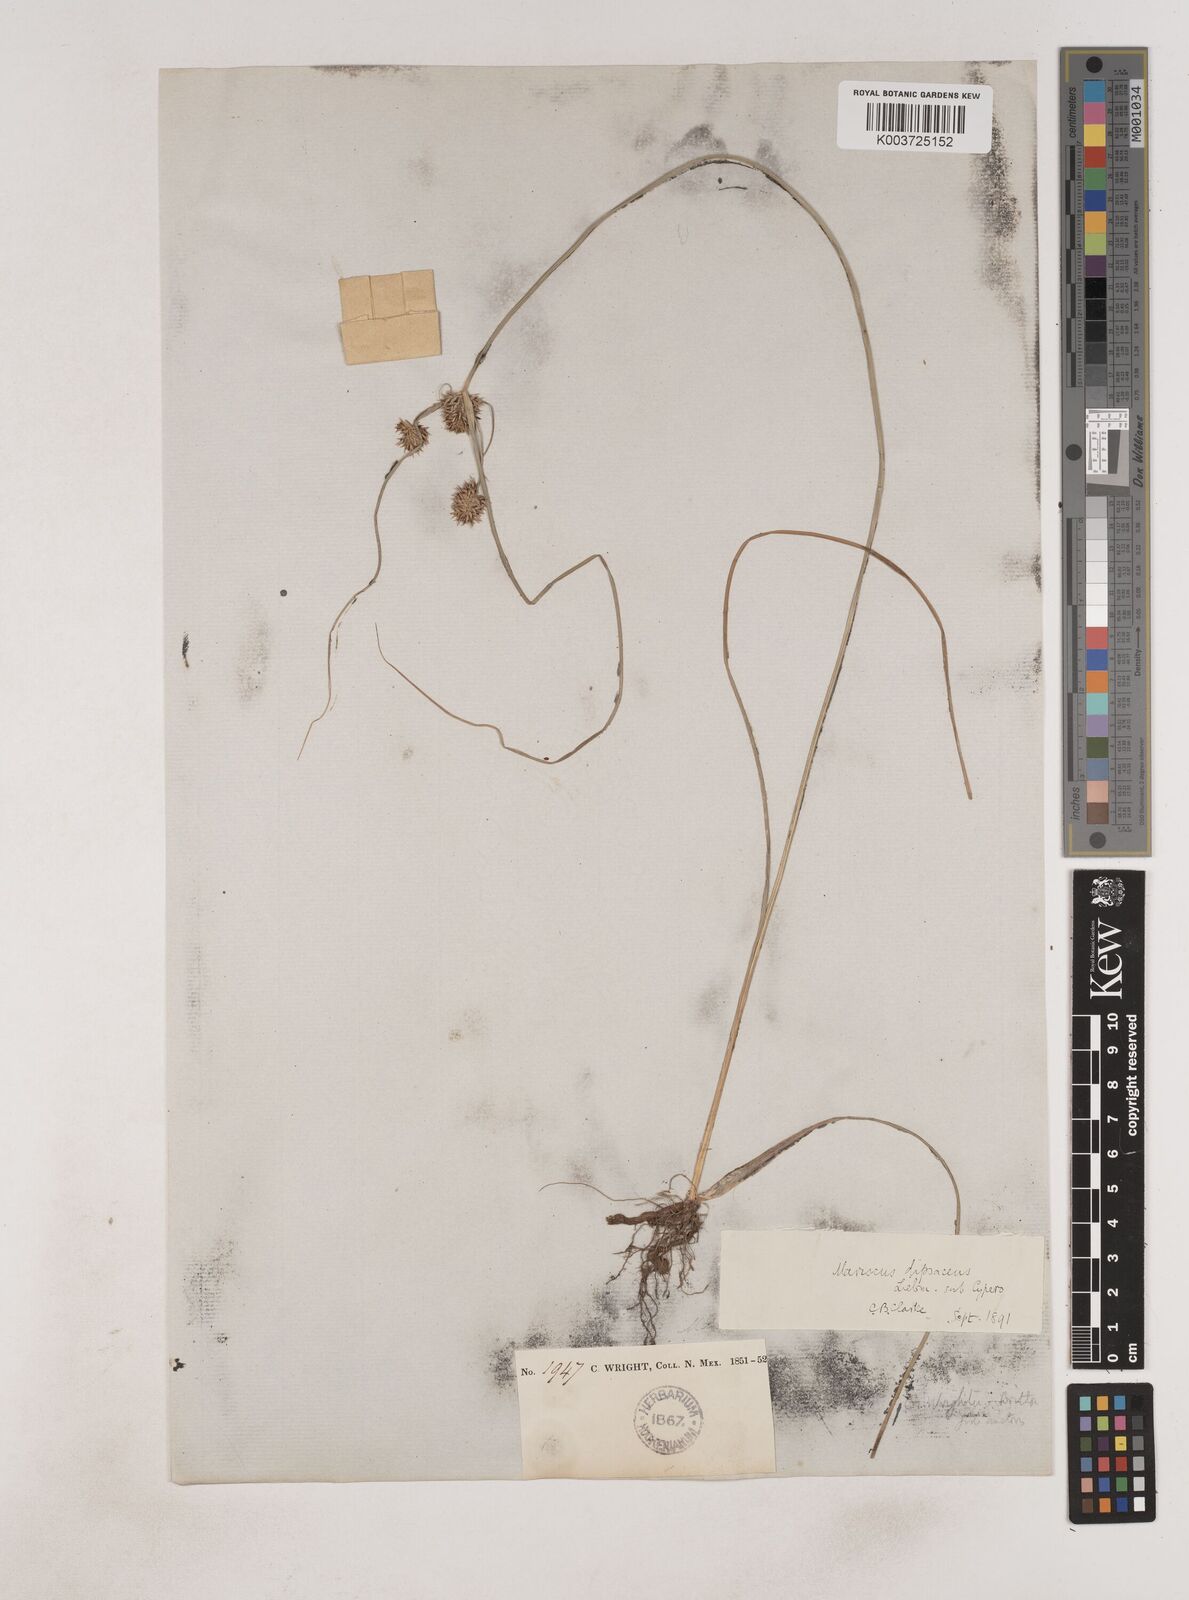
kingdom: Plantae
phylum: Tracheophyta
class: Liliopsida
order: Poales
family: Cyperaceae
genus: Cyperus
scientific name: Cyperus dipsaceus
